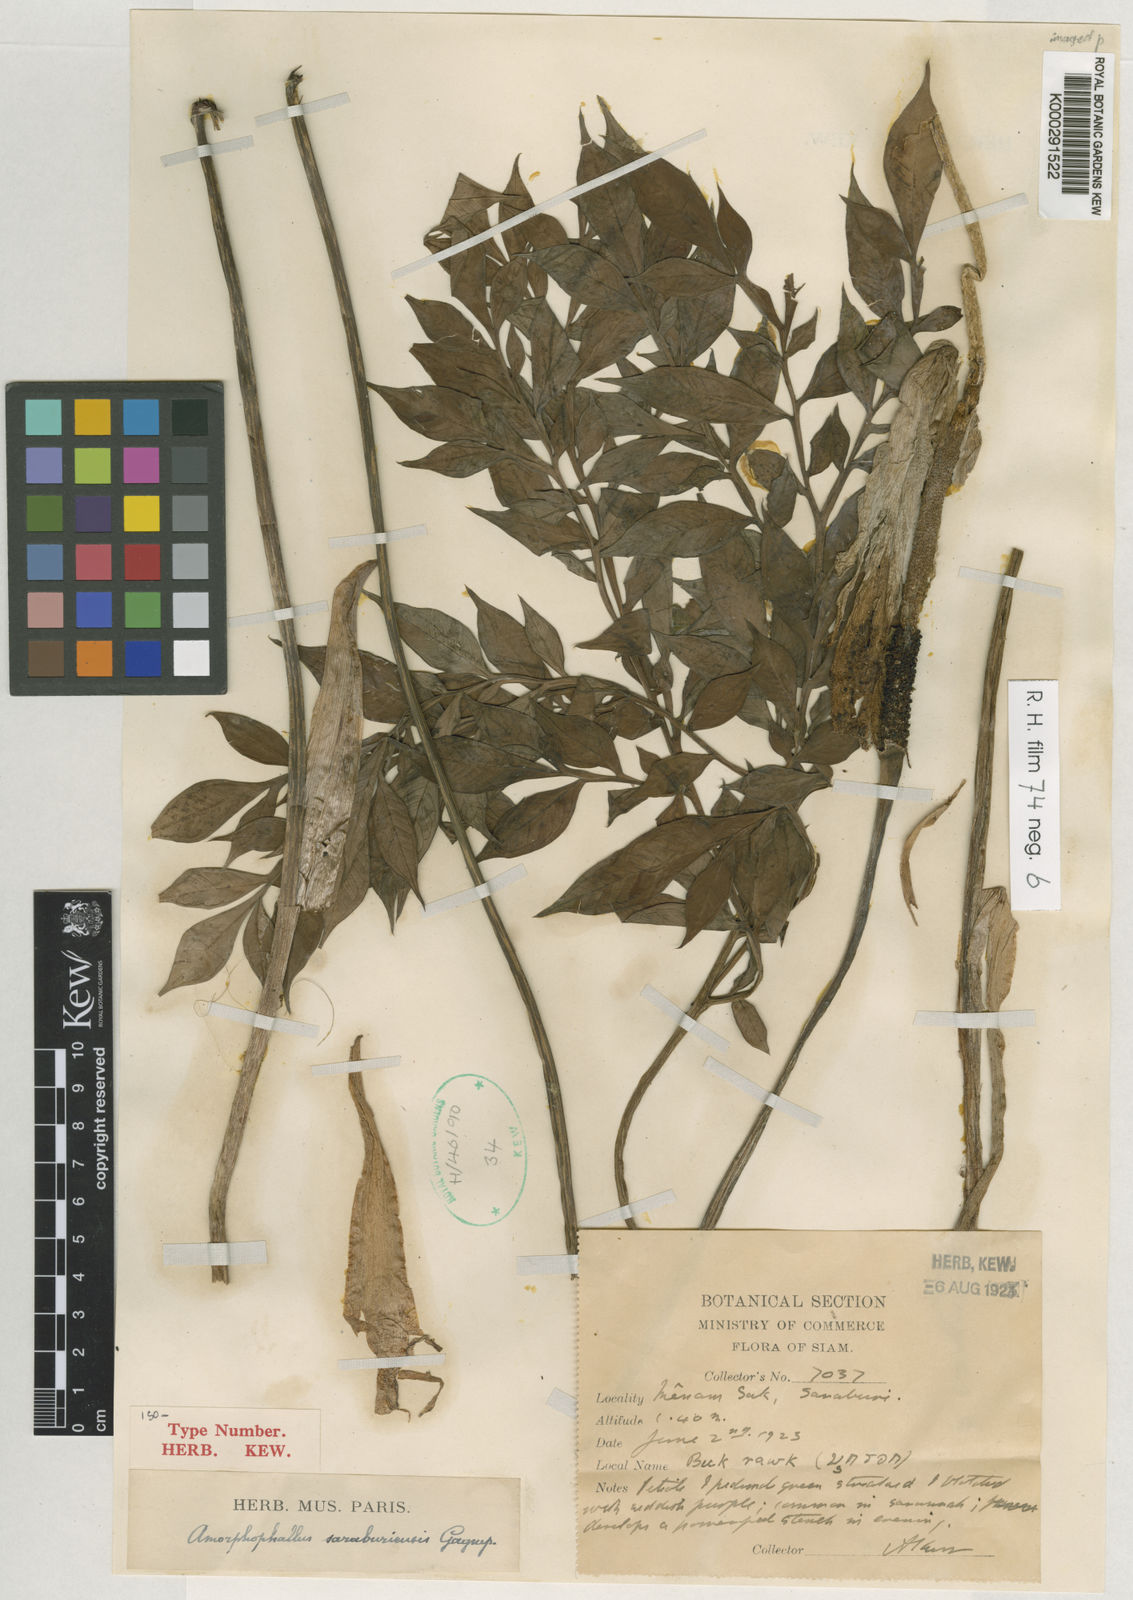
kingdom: Plantae
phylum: Tracheophyta
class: Liliopsida
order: Alismatales
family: Araceae
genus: Amorphophallus
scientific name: Amorphophallus
